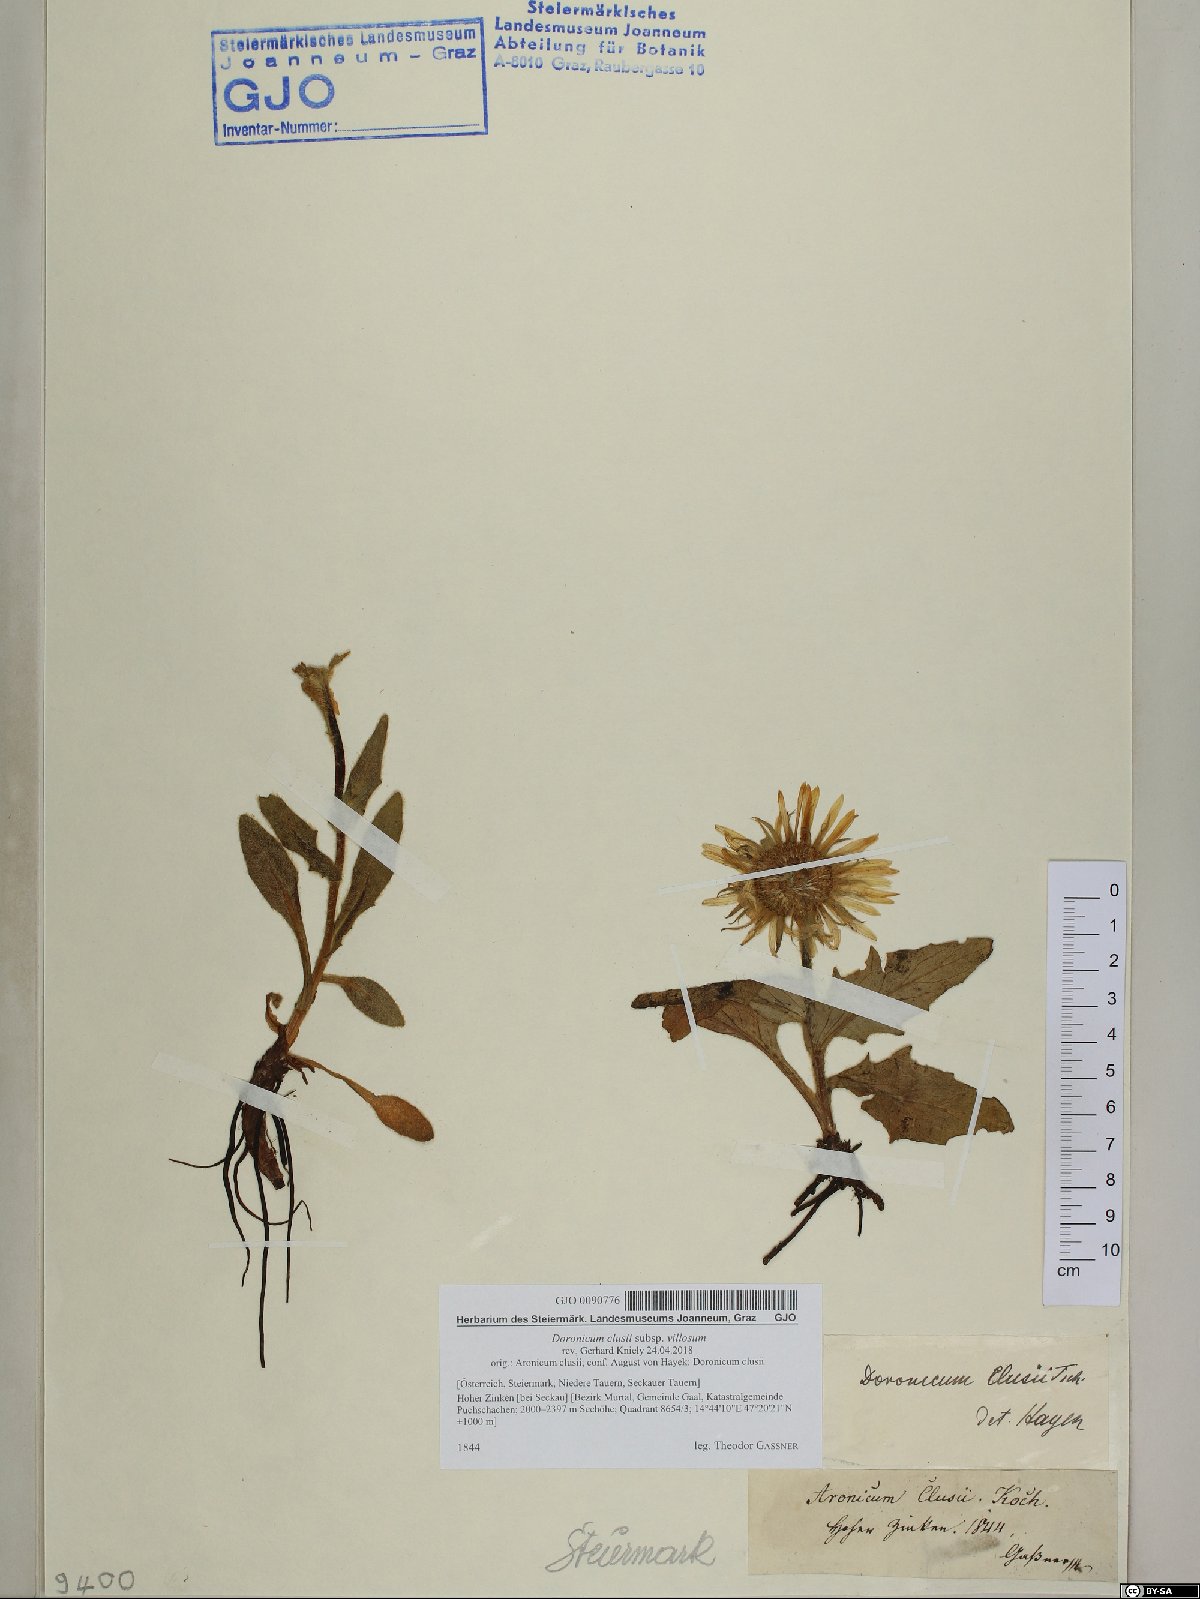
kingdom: Plantae
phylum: Tracheophyta
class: Magnoliopsida
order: Asterales
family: Asteraceae
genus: Doronicum
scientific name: Doronicum clusii
